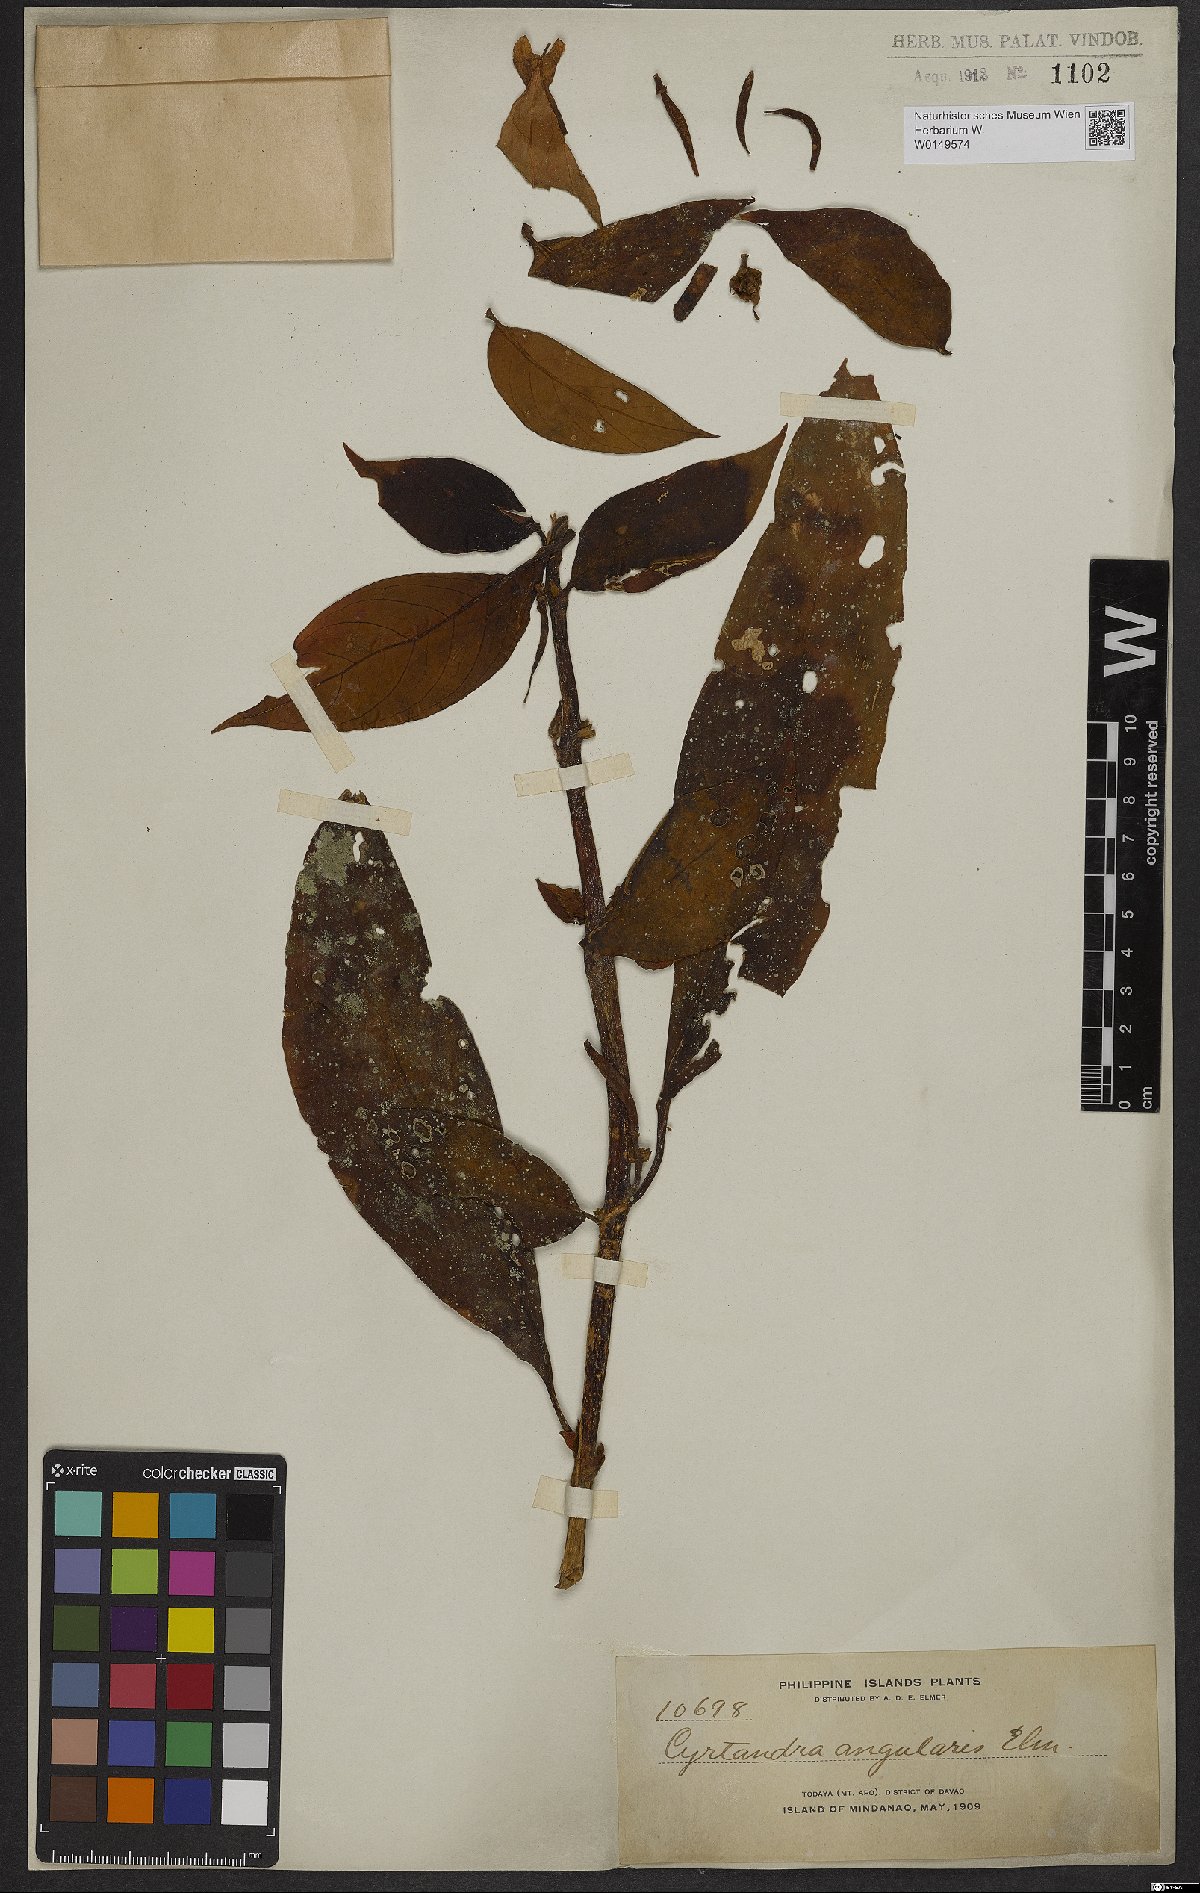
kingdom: Plantae
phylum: Tracheophyta
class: Magnoliopsida
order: Lamiales
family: Gesneriaceae
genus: Cyrtandra
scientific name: Cyrtandra angularis
